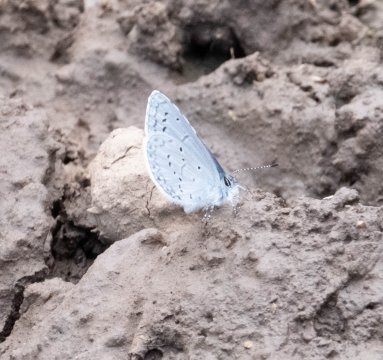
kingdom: Animalia
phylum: Arthropoda
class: Insecta
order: Lepidoptera
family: Lycaenidae
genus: Celastrina
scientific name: Celastrina ladon
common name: Echo Azure
